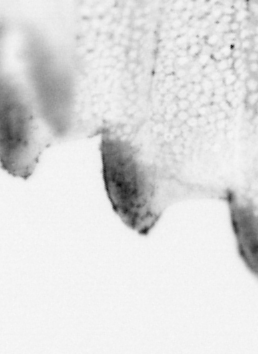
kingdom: Animalia
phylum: Chordata
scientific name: Chordata
